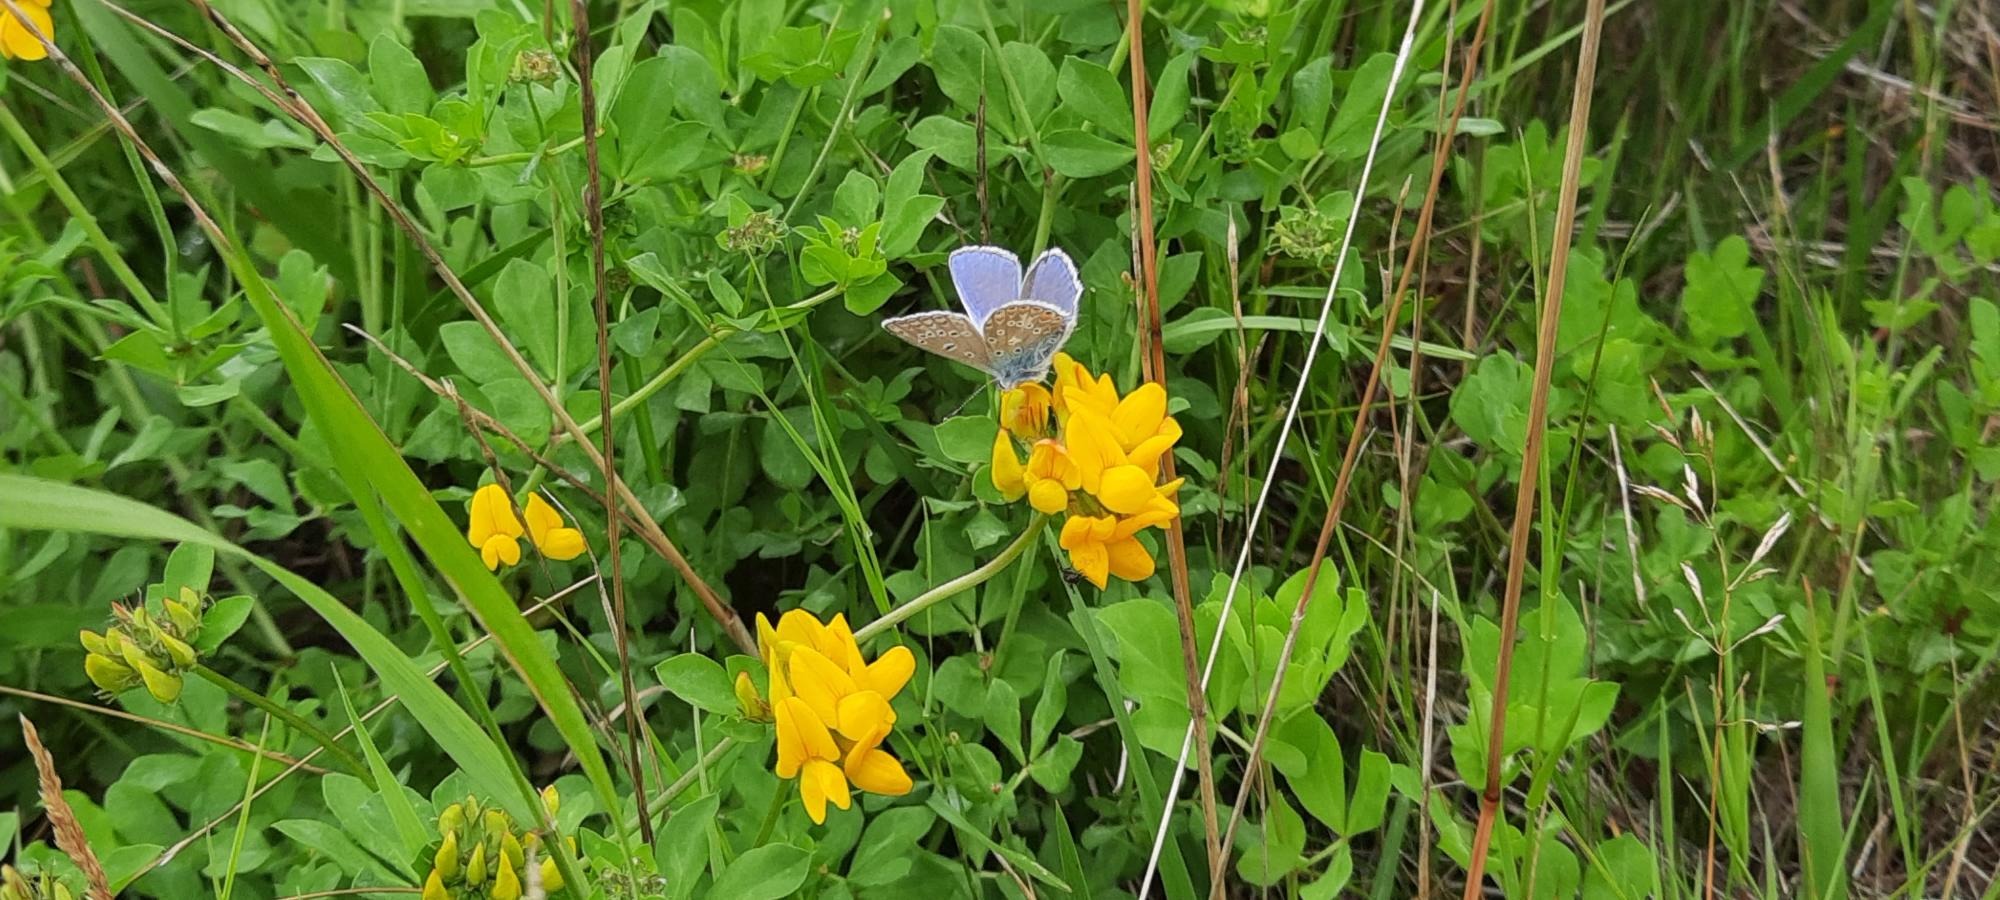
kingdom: Animalia
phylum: Arthropoda
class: Insecta
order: Lepidoptera
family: Lycaenidae
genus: Polyommatus
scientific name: Polyommatus icarus
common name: Almindelig blåfugl
